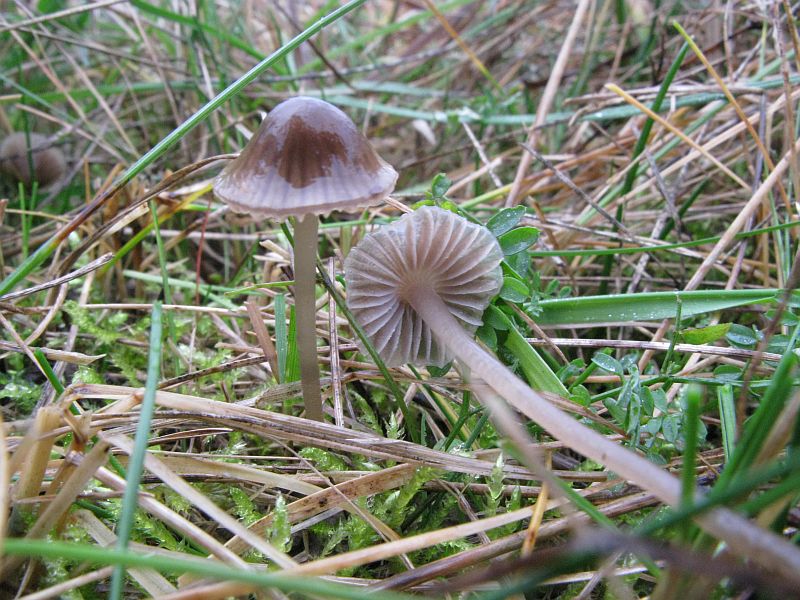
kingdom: Fungi
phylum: Basidiomycota
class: Agaricomycetes
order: Agaricales
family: Mycenaceae
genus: Mycena
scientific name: Mycena aetites
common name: plæne-huesvamp
